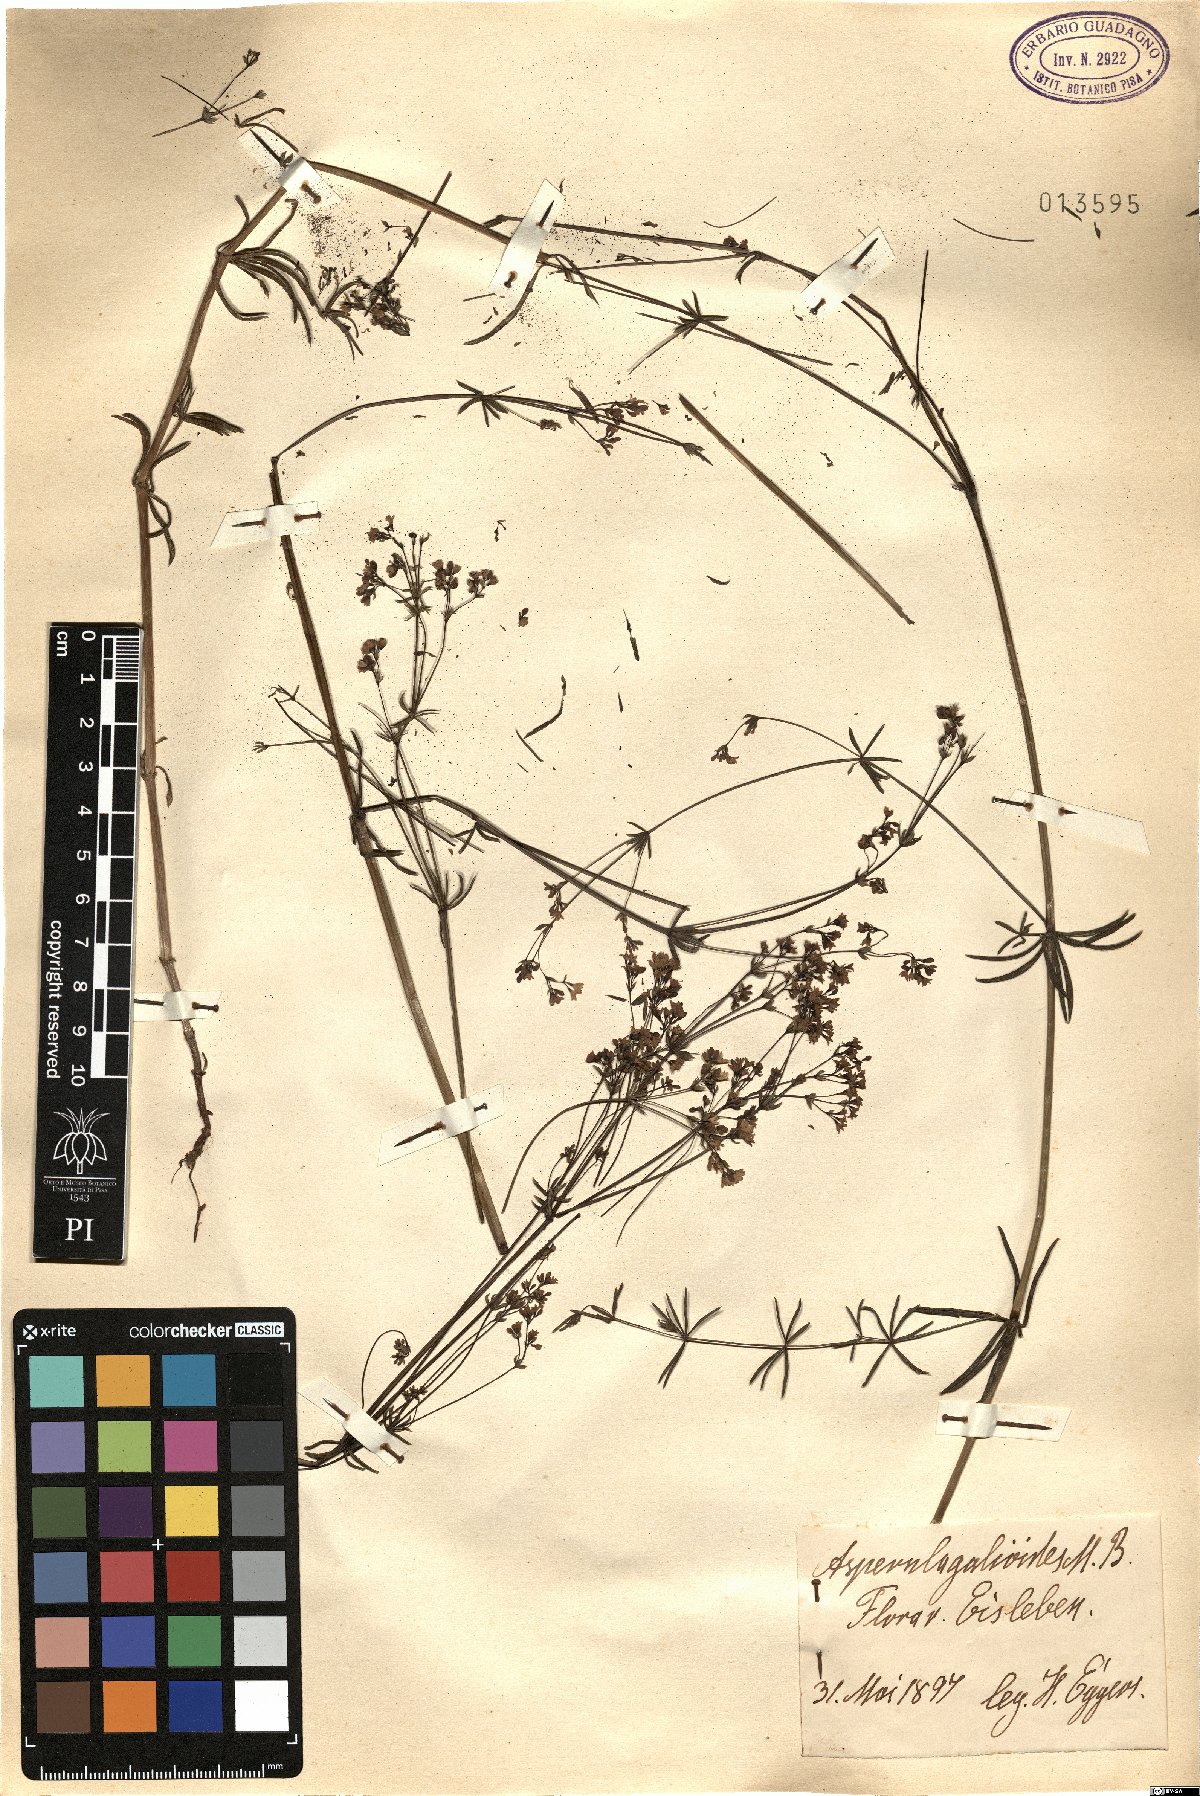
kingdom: Plantae
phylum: Tracheophyta
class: Magnoliopsida
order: Gentianales
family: Rubiaceae
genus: Asperula
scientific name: Asperula galioides
